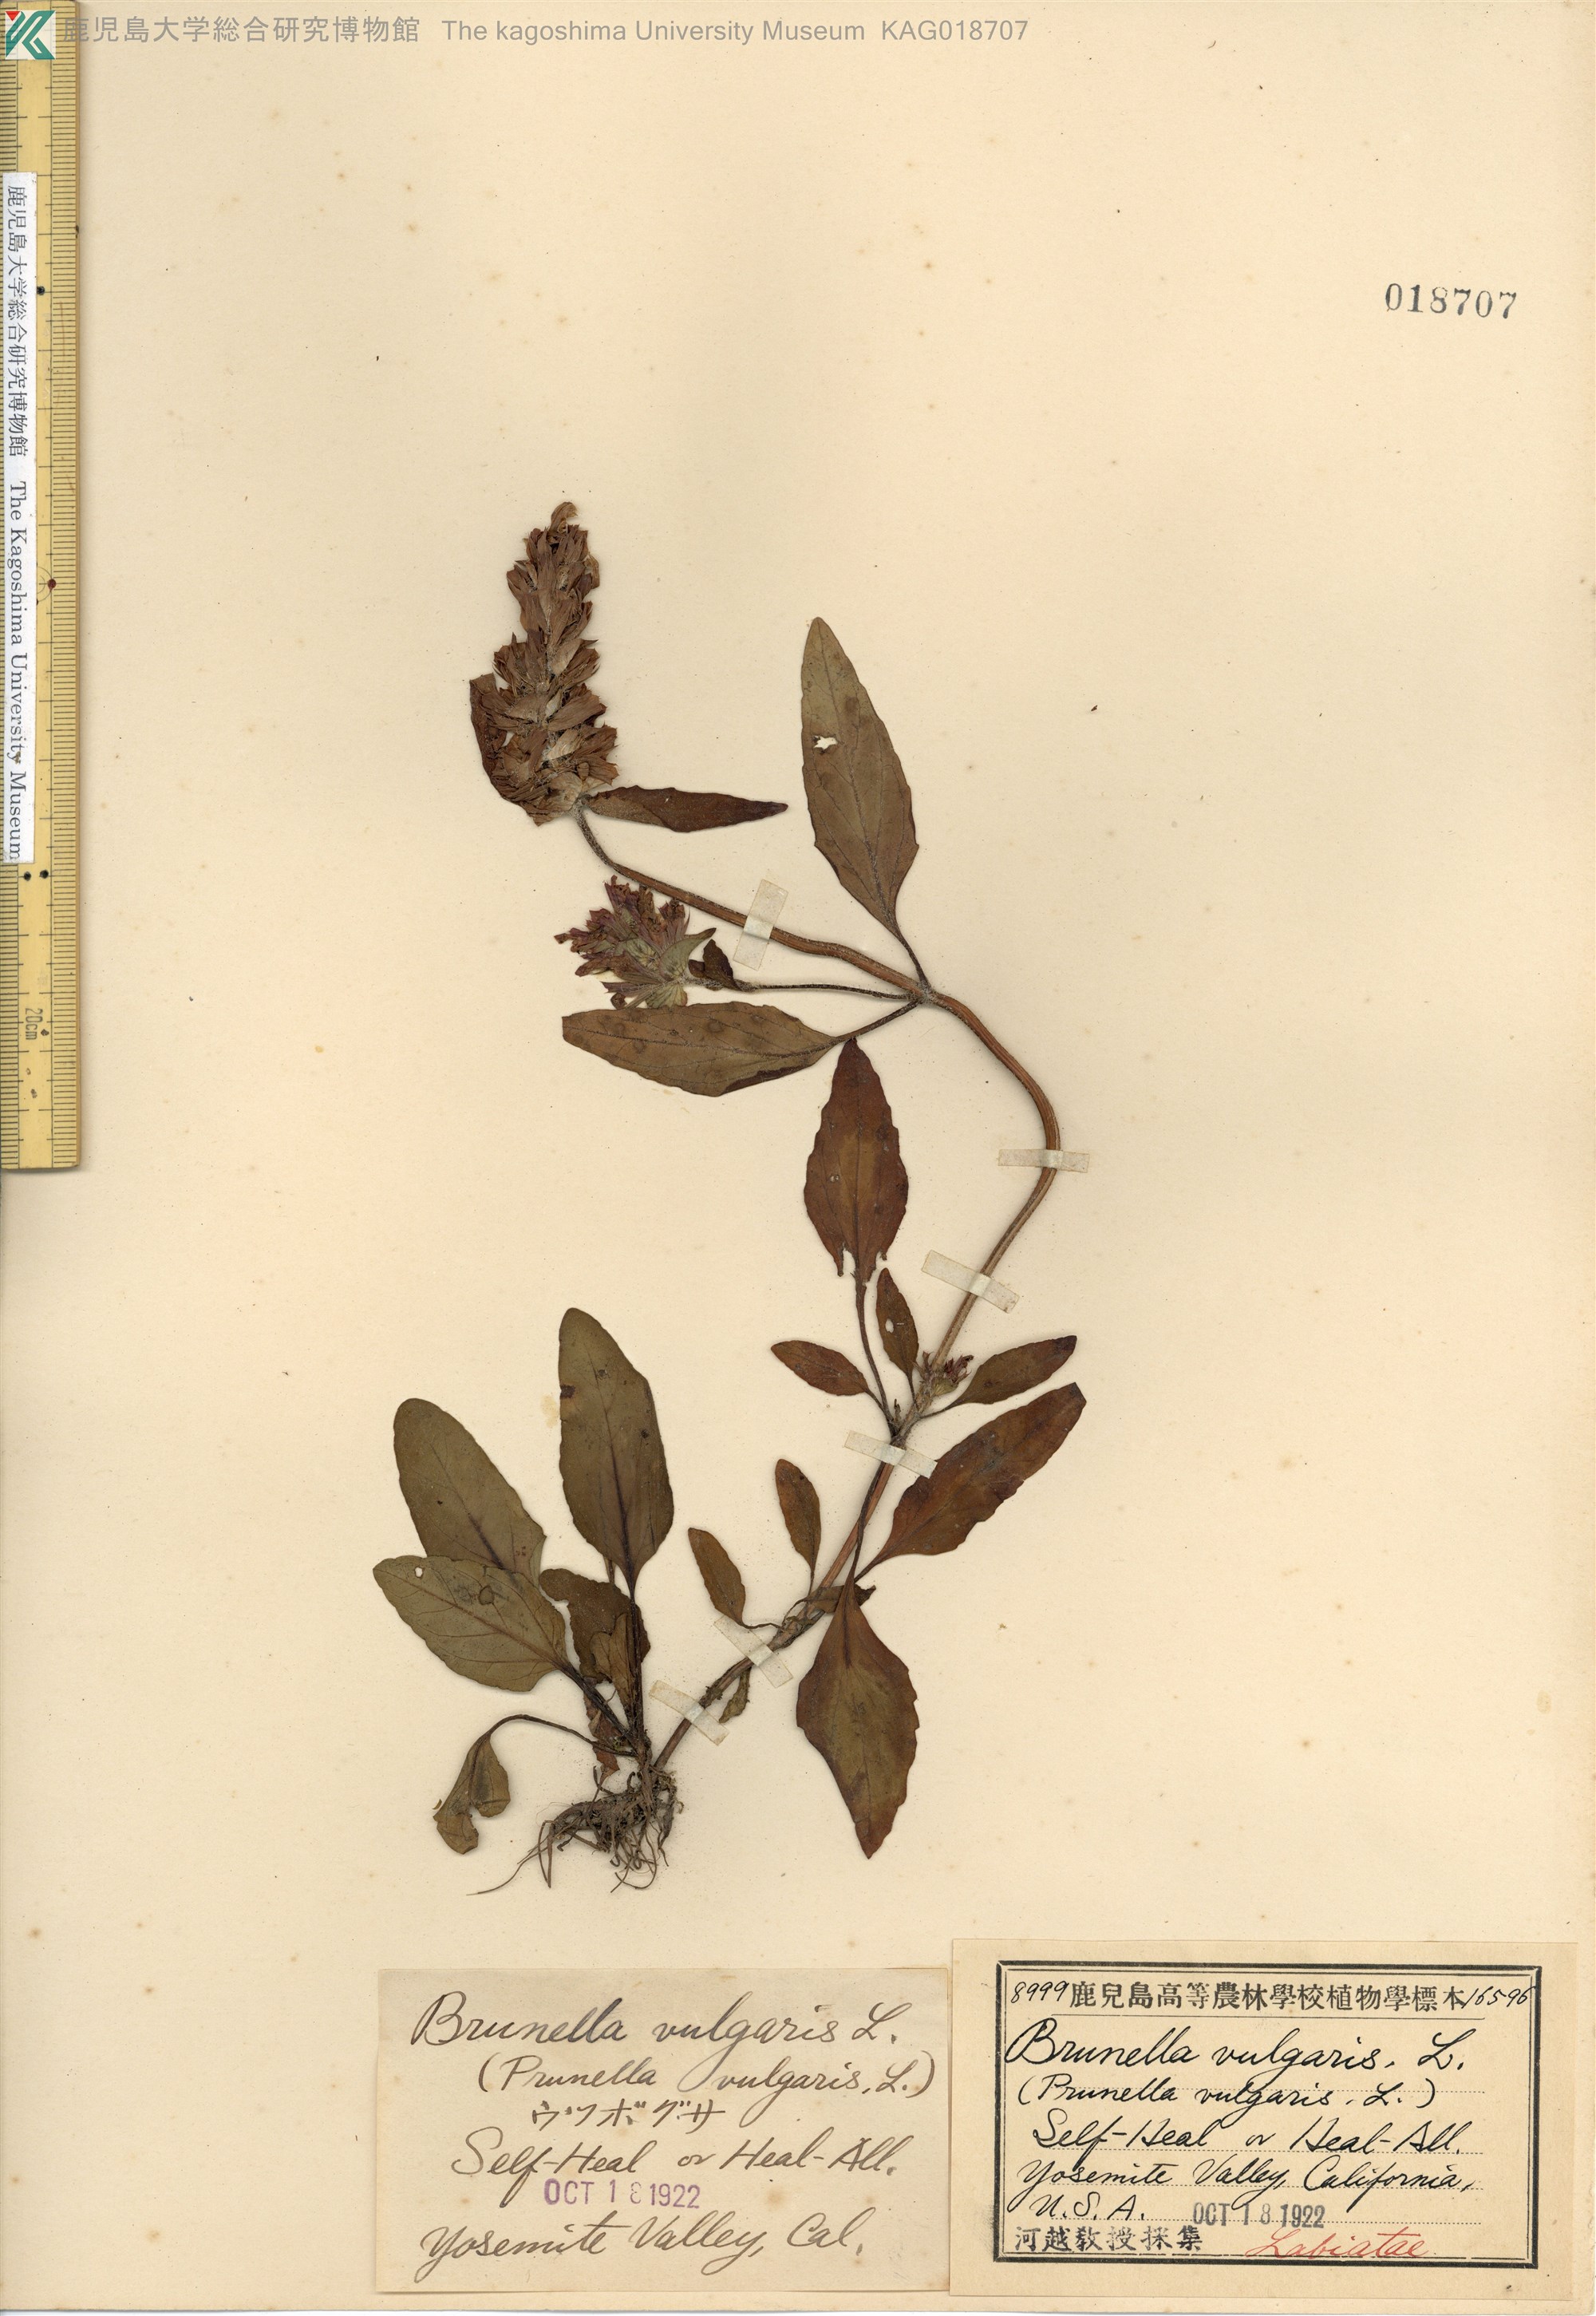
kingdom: Plantae
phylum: Tracheophyta
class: Magnoliopsida
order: Lamiales
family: Lamiaceae
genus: Prunella
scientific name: Prunella vulgaris
